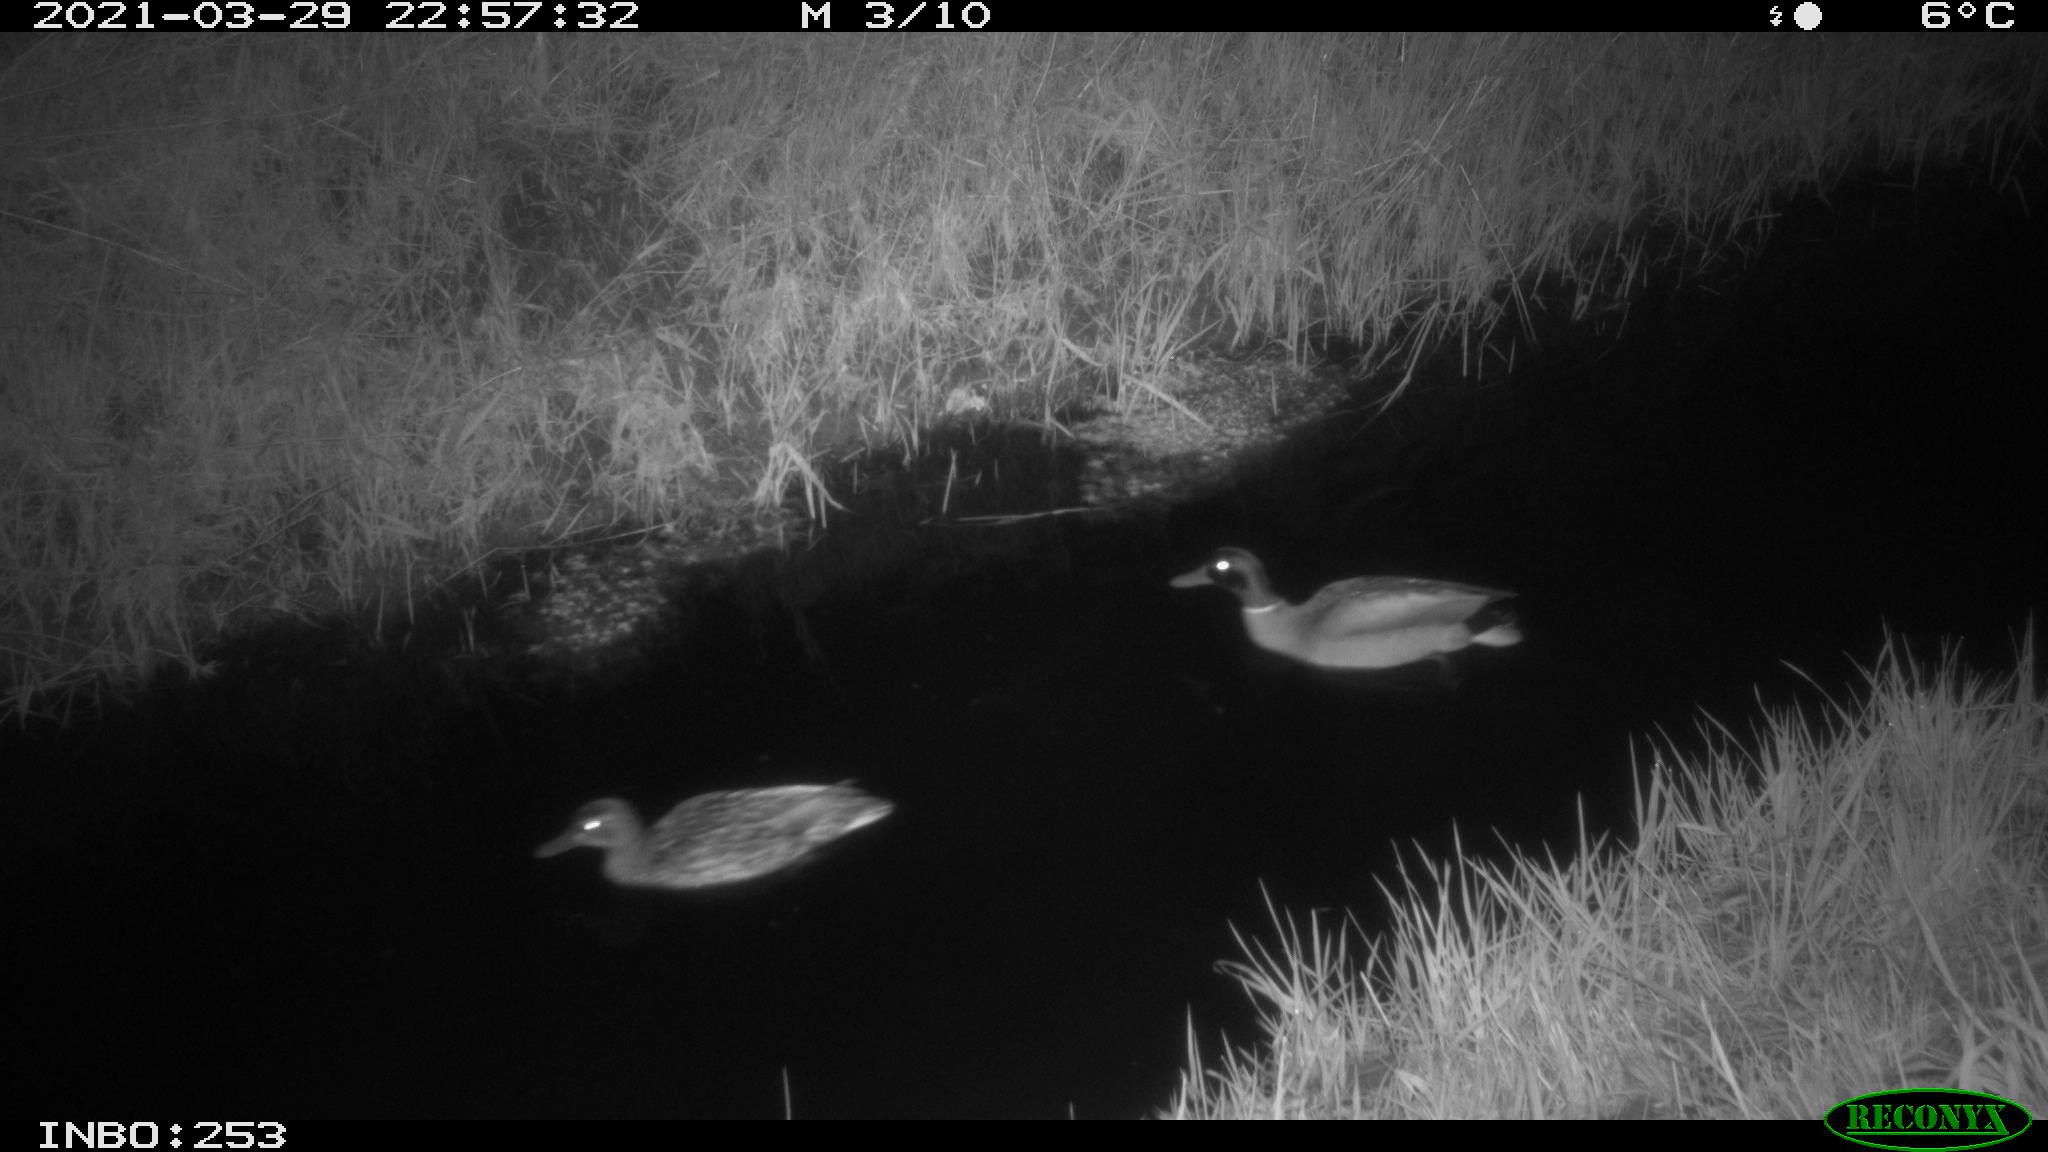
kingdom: Animalia
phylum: Chordata
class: Aves
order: Anseriformes
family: Anatidae
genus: Anas
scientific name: Anas platyrhynchos
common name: Mallard
